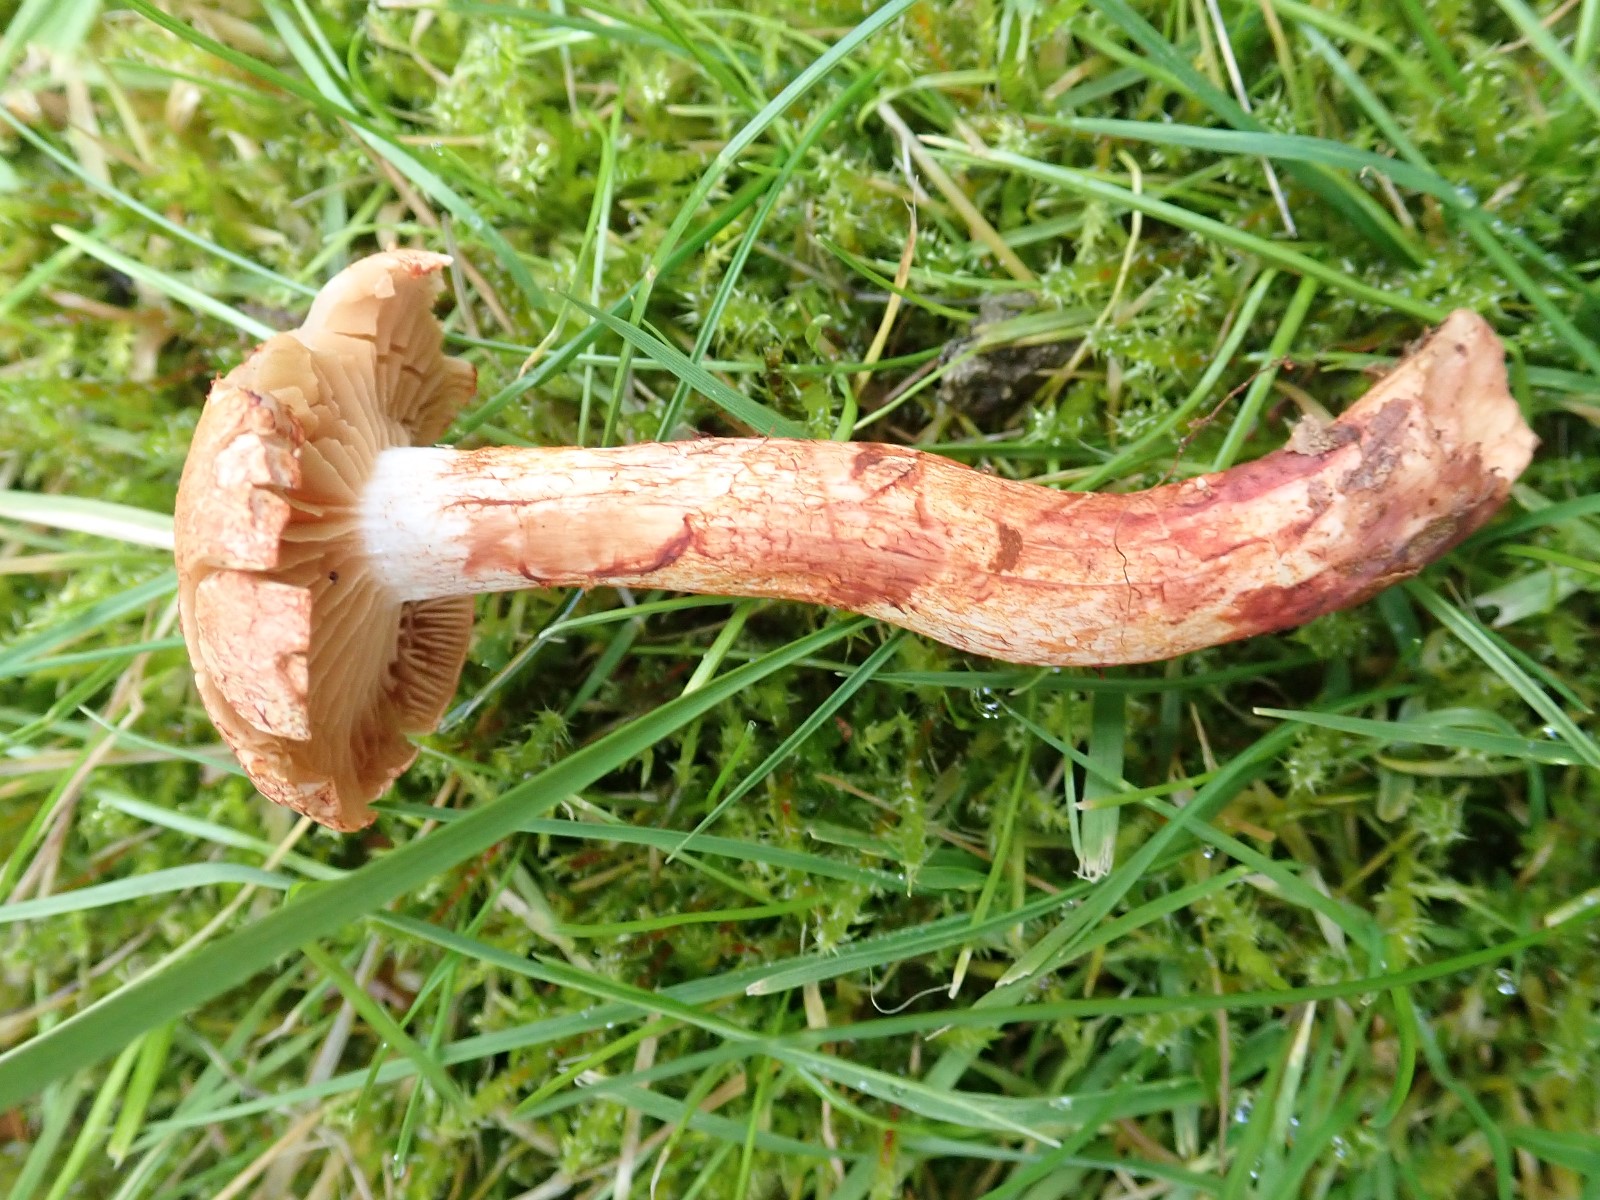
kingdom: Fungi
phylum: Basidiomycota
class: Agaricomycetes
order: Agaricales
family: Cortinariaceae
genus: Cortinarius
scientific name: Cortinarius bolaris
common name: cinnoberskællet slørhat
